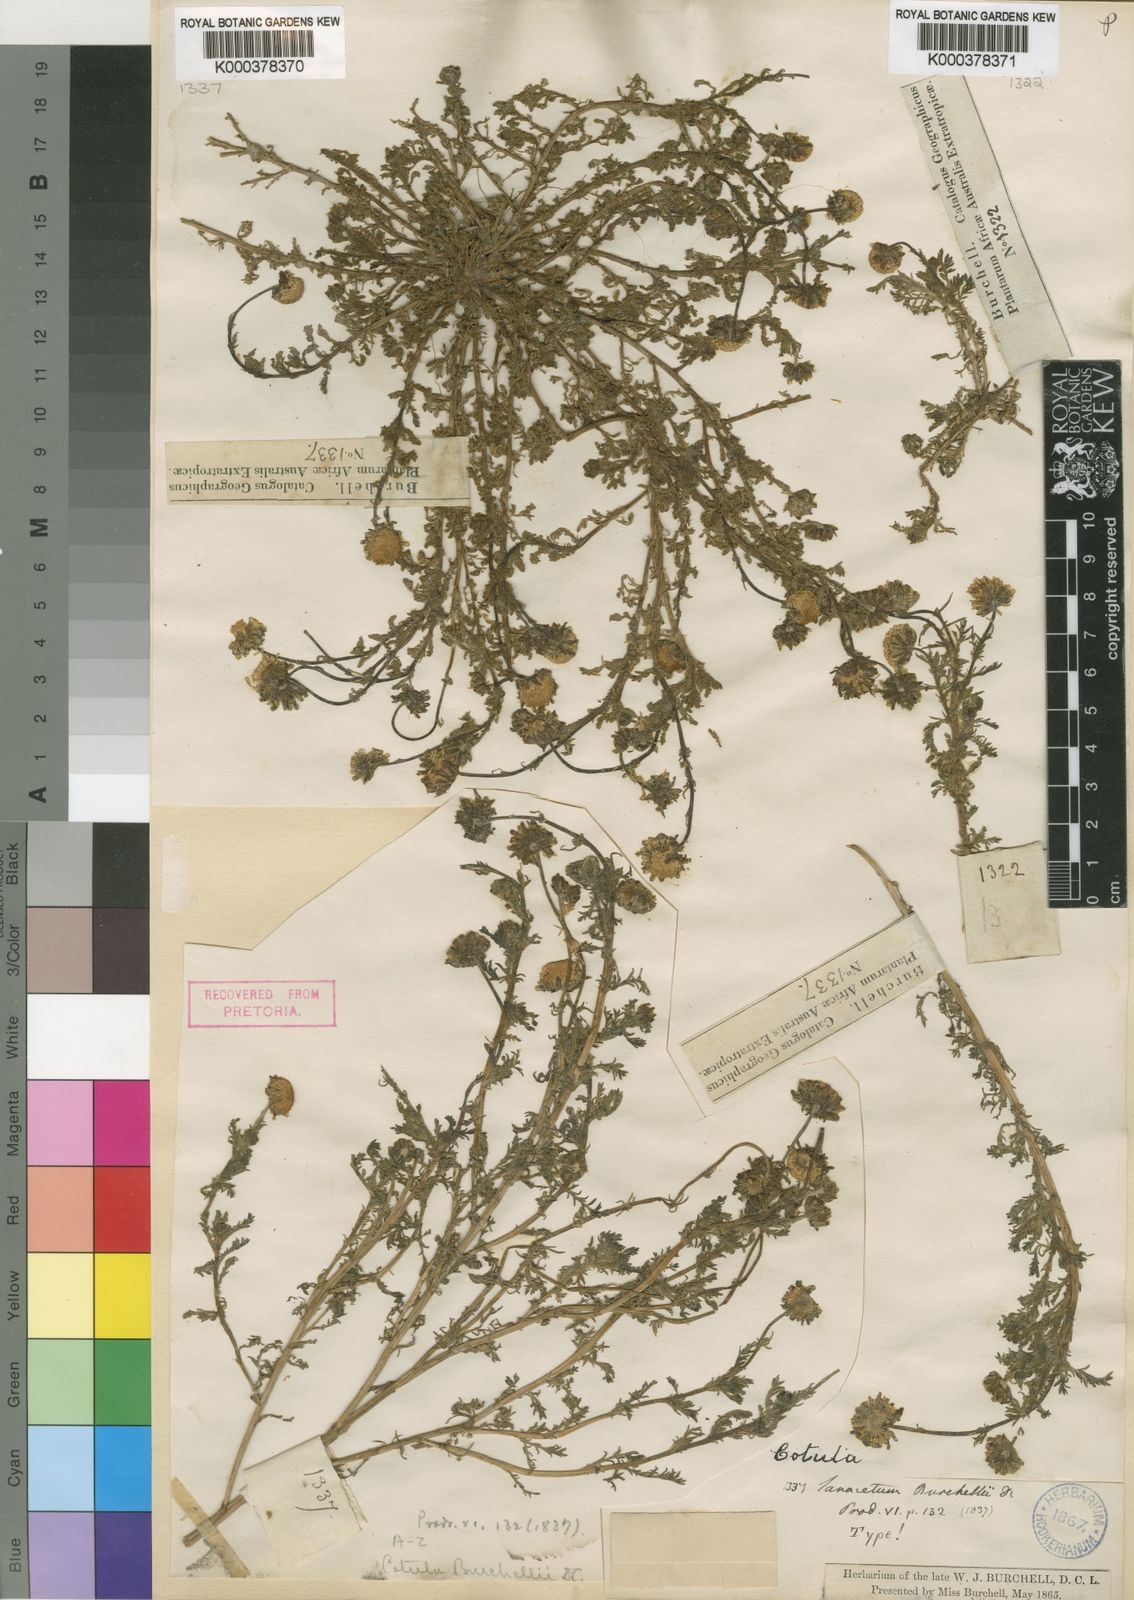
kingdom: Plantae
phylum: Tracheophyta
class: Magnoliopsida
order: Asterales
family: Asteraceae
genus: Cotula
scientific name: Cotula
